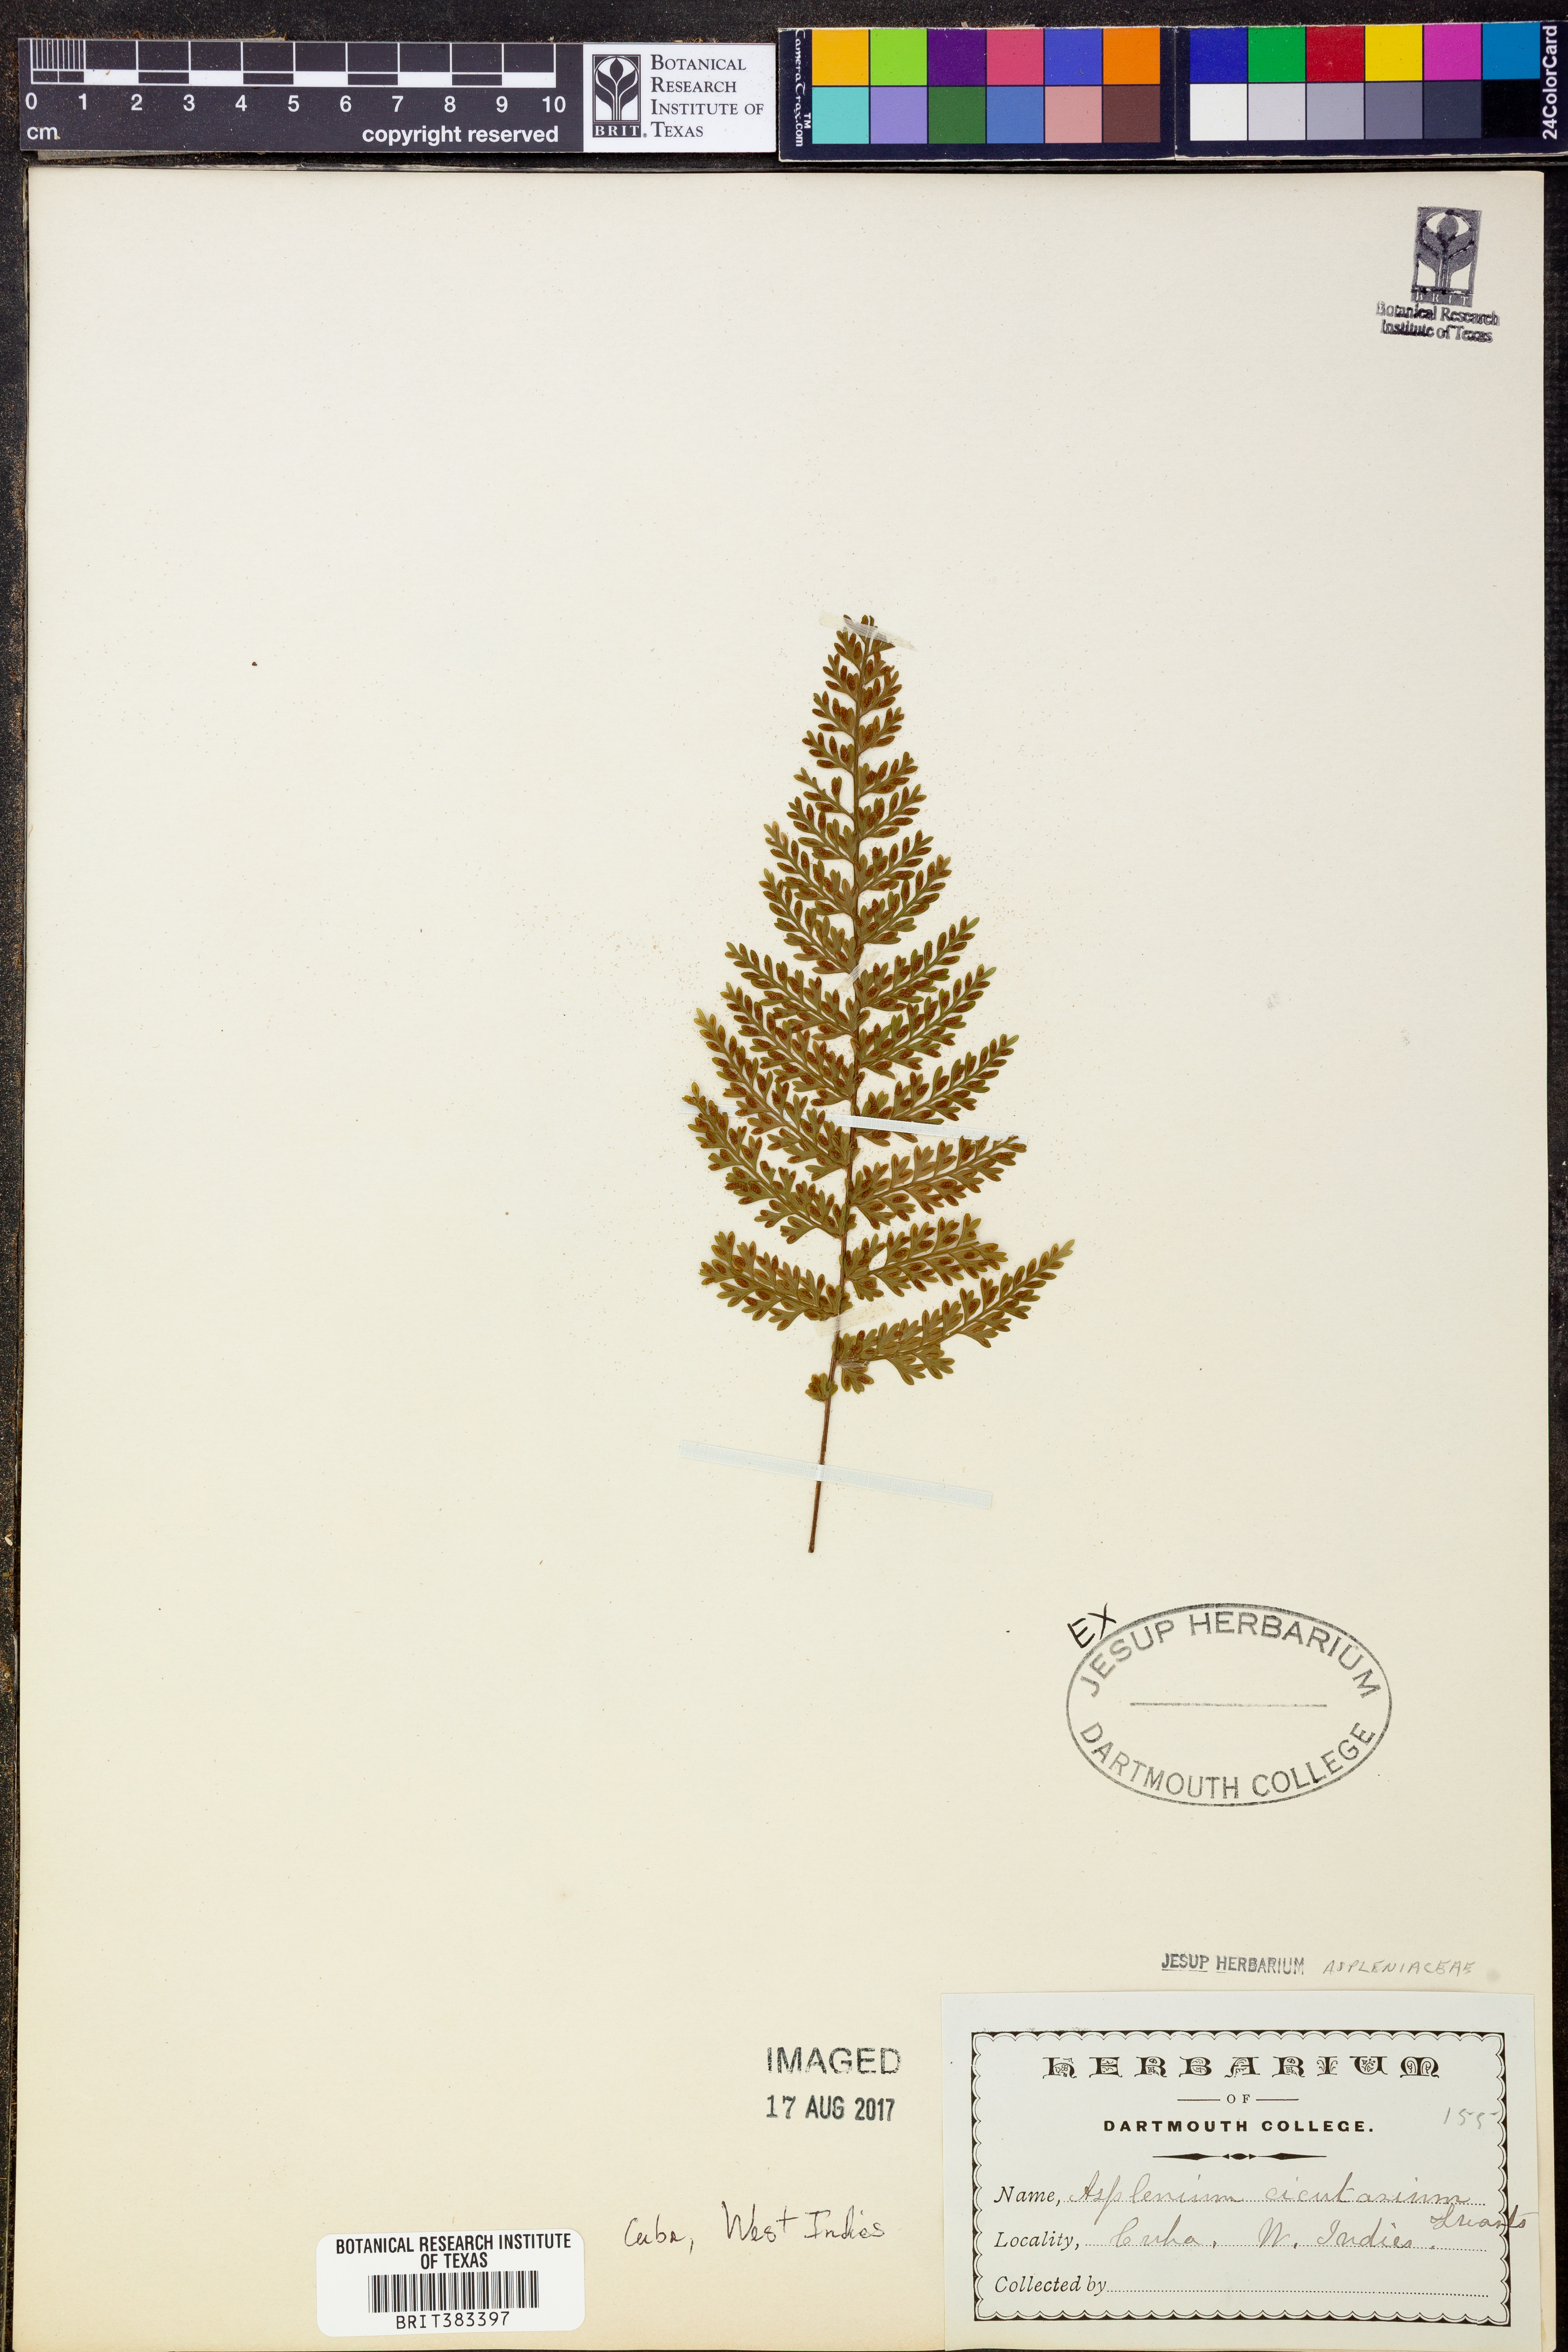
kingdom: Plantae
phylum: Tracheophyta
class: Polypodiopsida
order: Polypodiales
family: Aspleniaceae
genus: Asplenium
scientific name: Asplenium cristatum
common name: Parsley spleenwort
